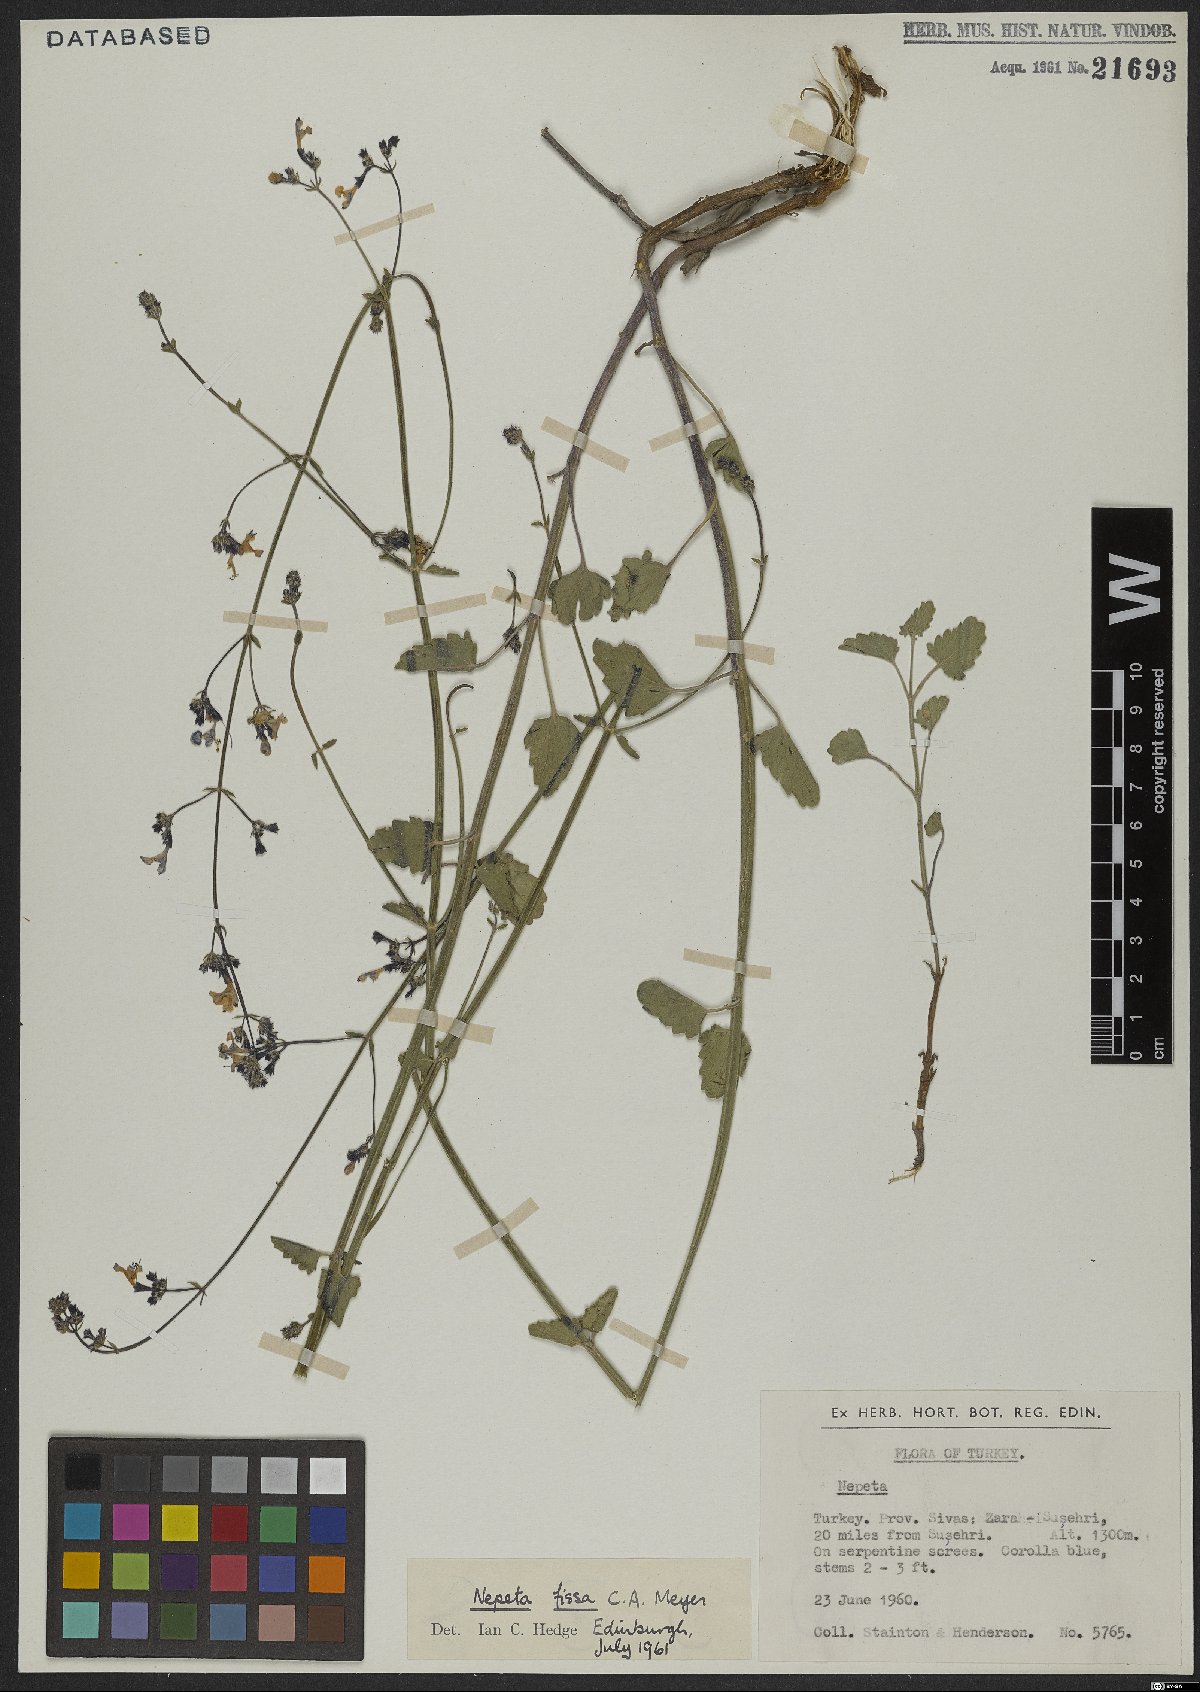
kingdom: Plantae
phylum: Tracheophyta
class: Magnoliopsida
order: Lamiales
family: Lamiaceae
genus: Nepeta
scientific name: Nepeta teucriifolia
